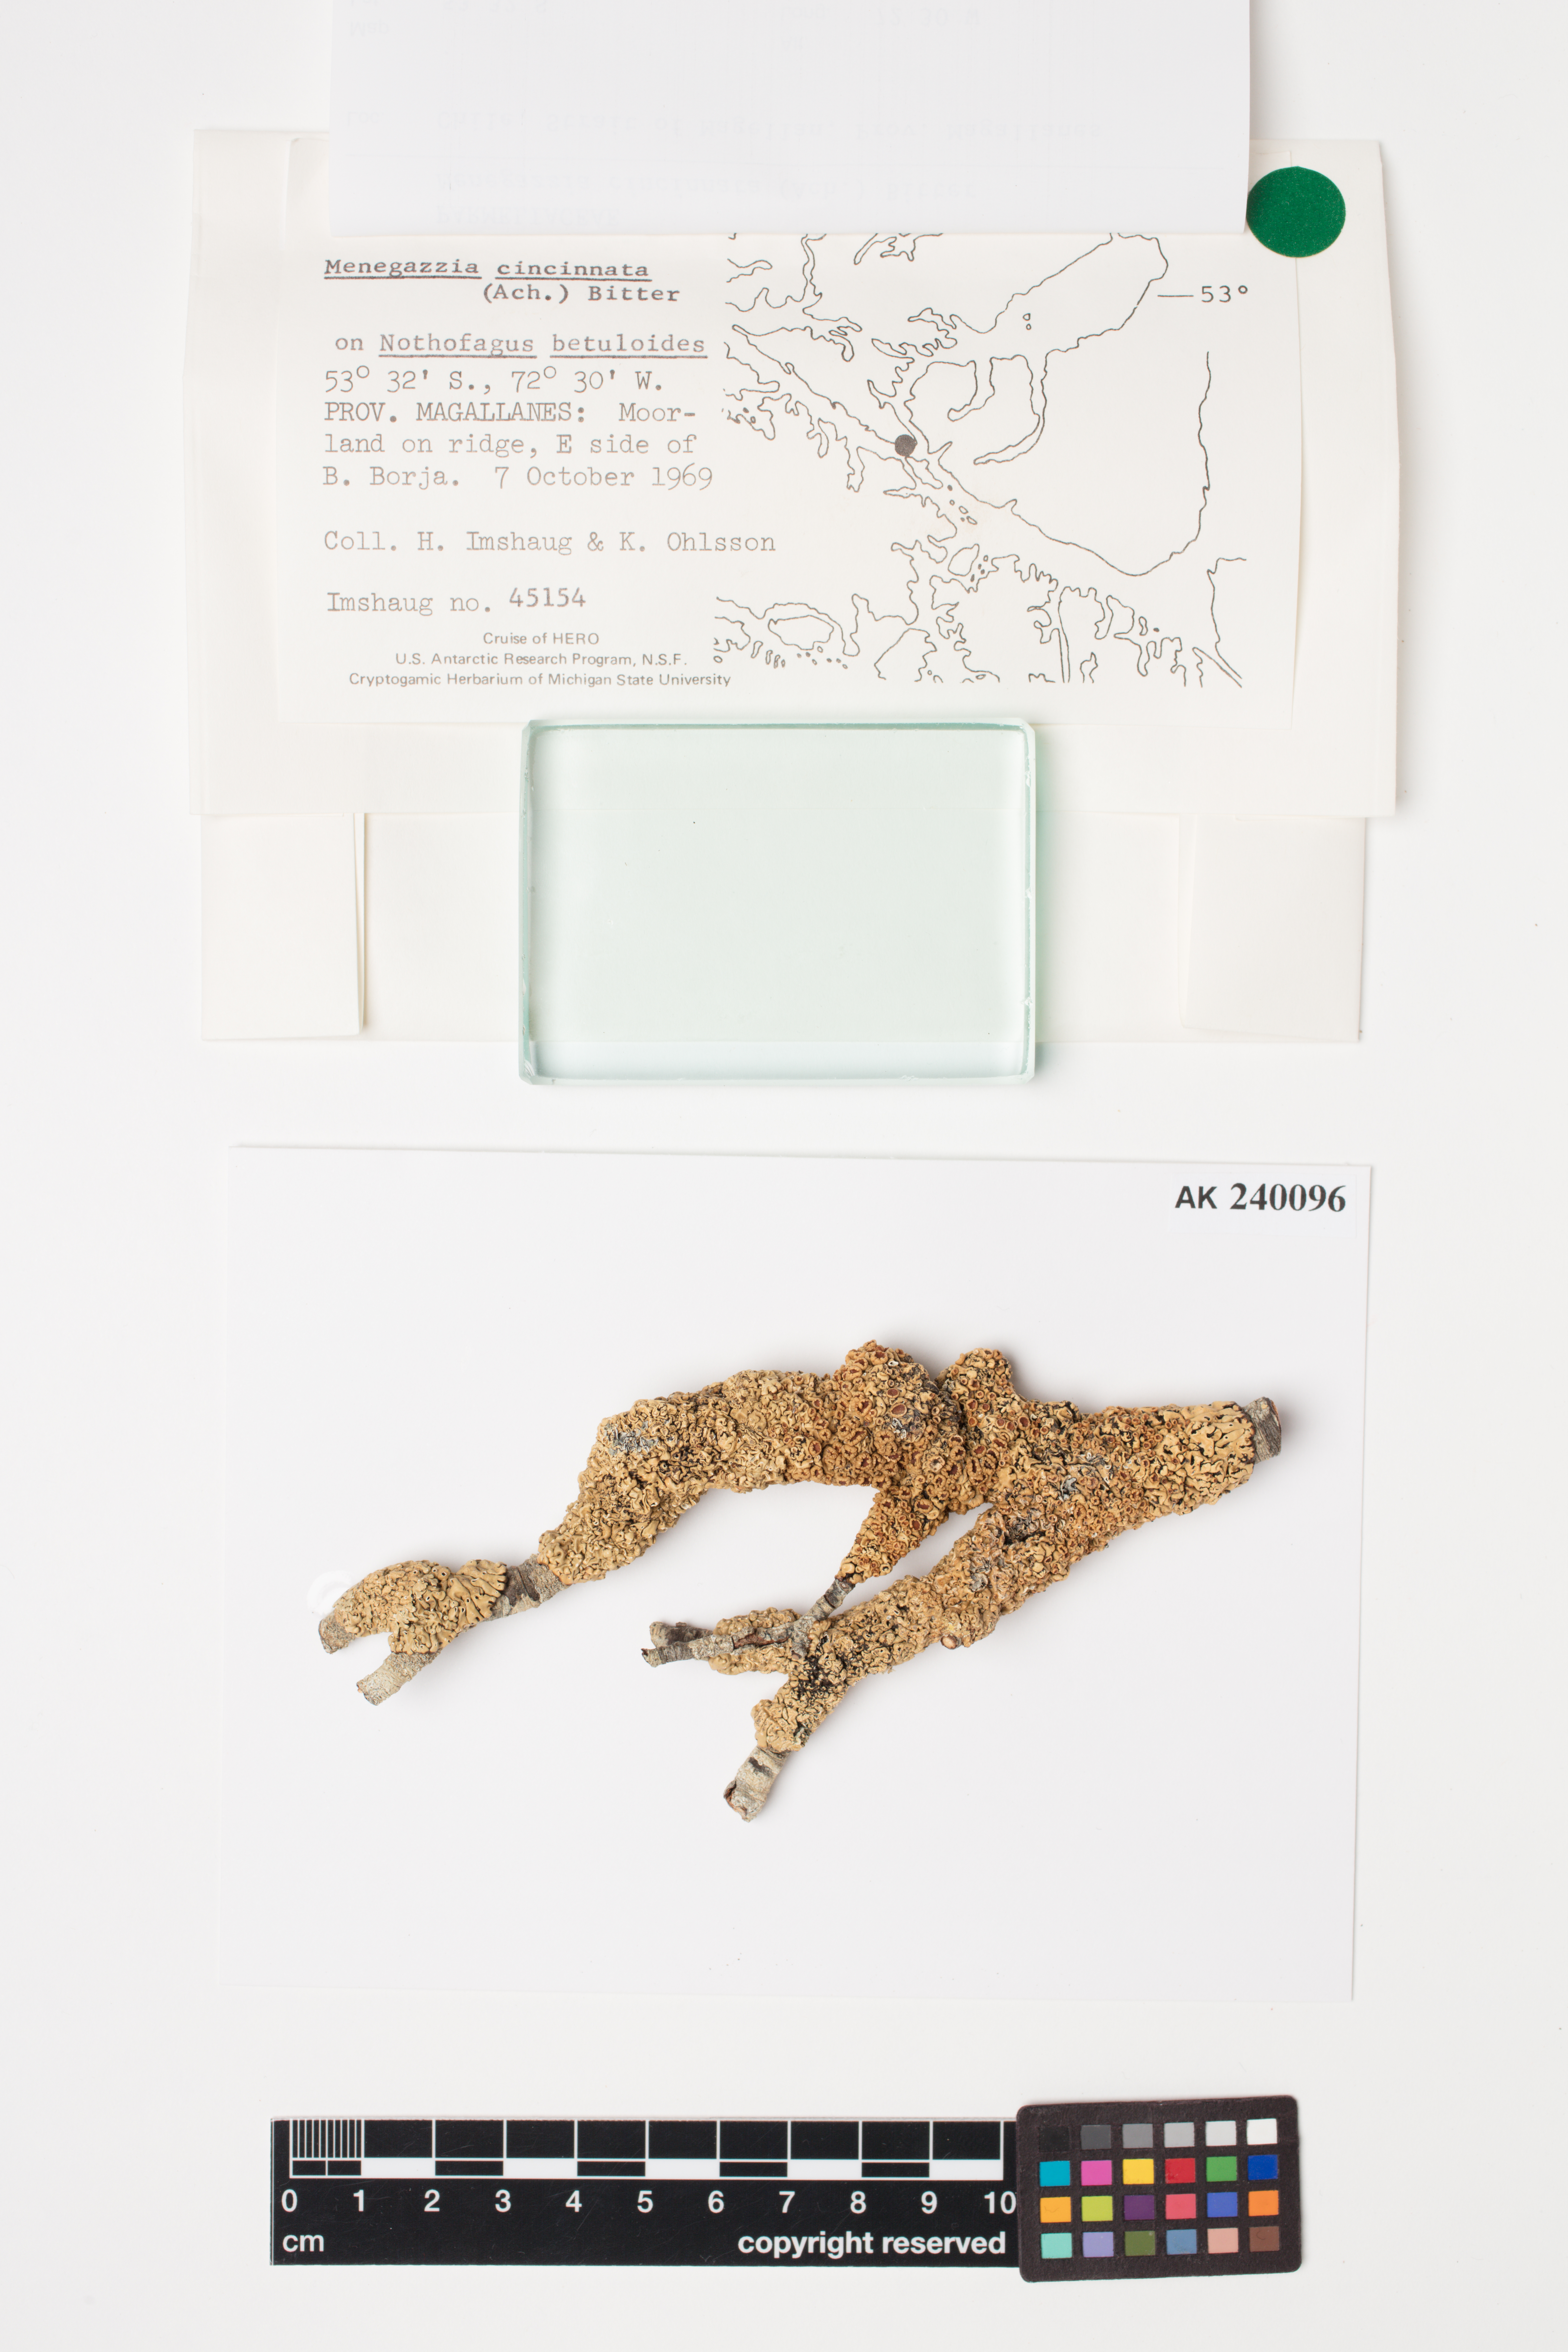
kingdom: Fungi
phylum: Ascomycota
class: Lecanoromycetes
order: Lecanorales
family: Parmeliaceae
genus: Menegazzia
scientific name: Menegazzia cincinnata
